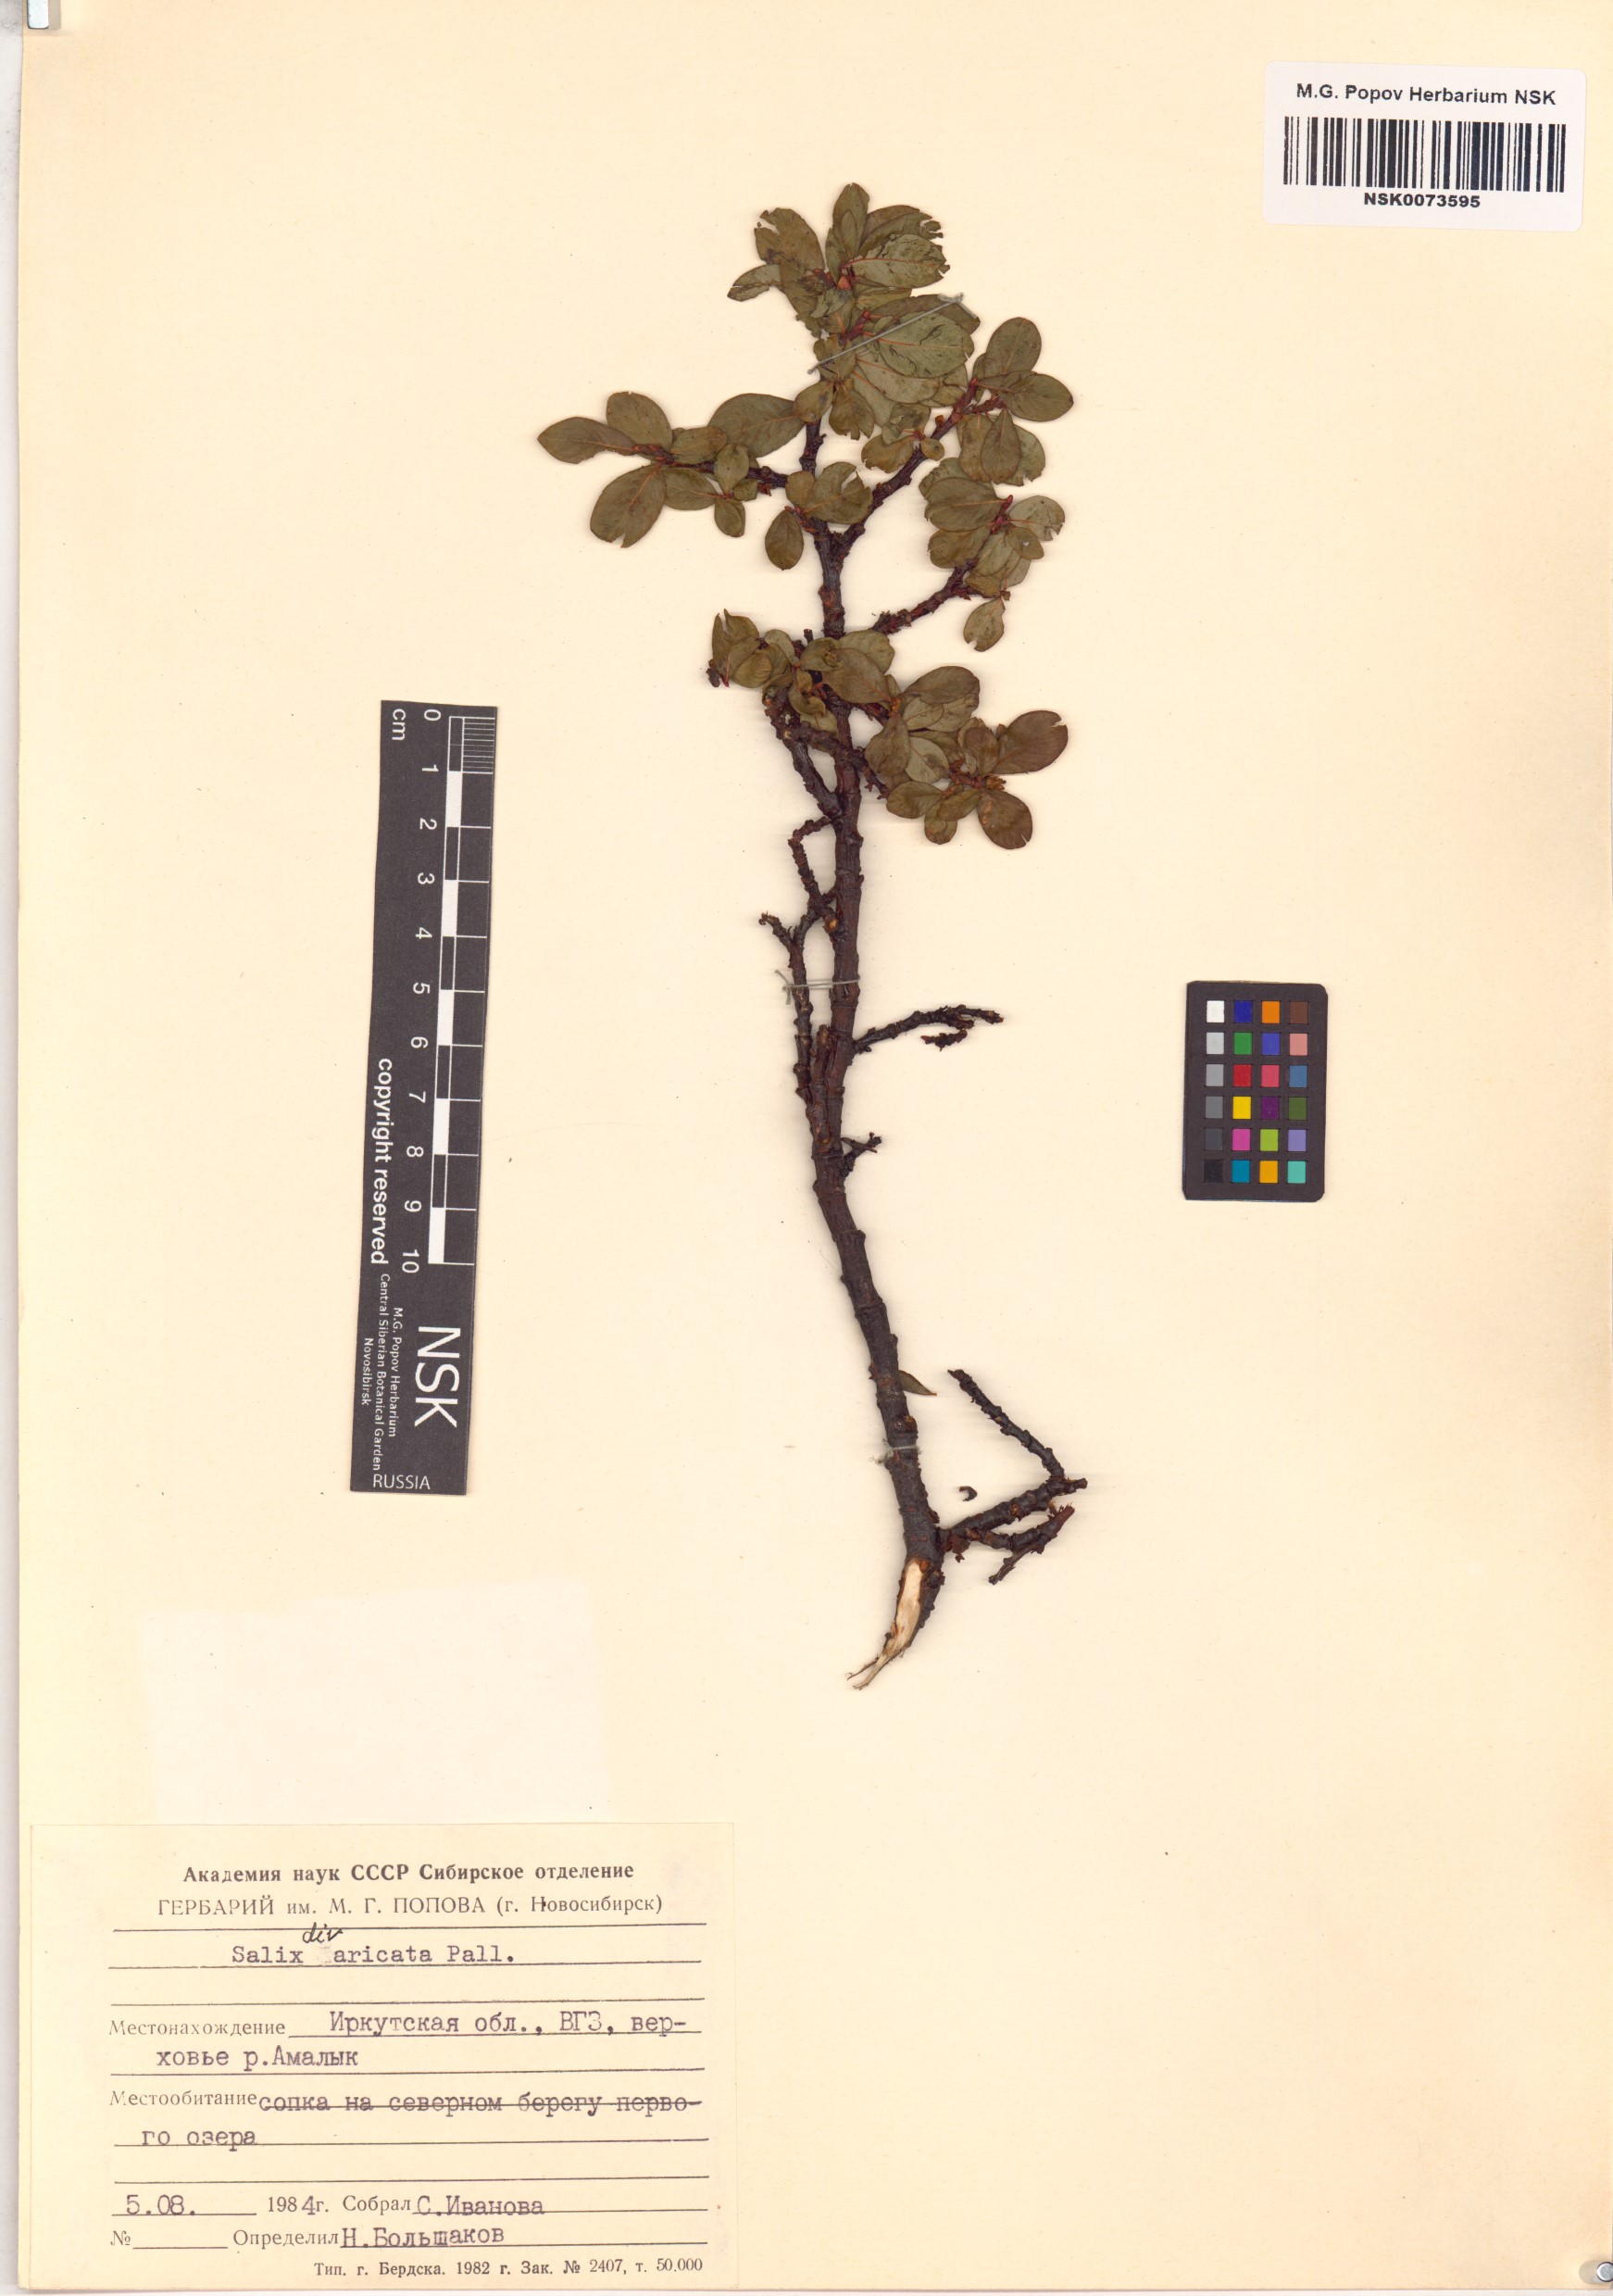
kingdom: Plantae
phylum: Tracheophyta
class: Magnoliopsida
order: Malpighiales
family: Salicaceae
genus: Salix
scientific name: Salix divaricata
